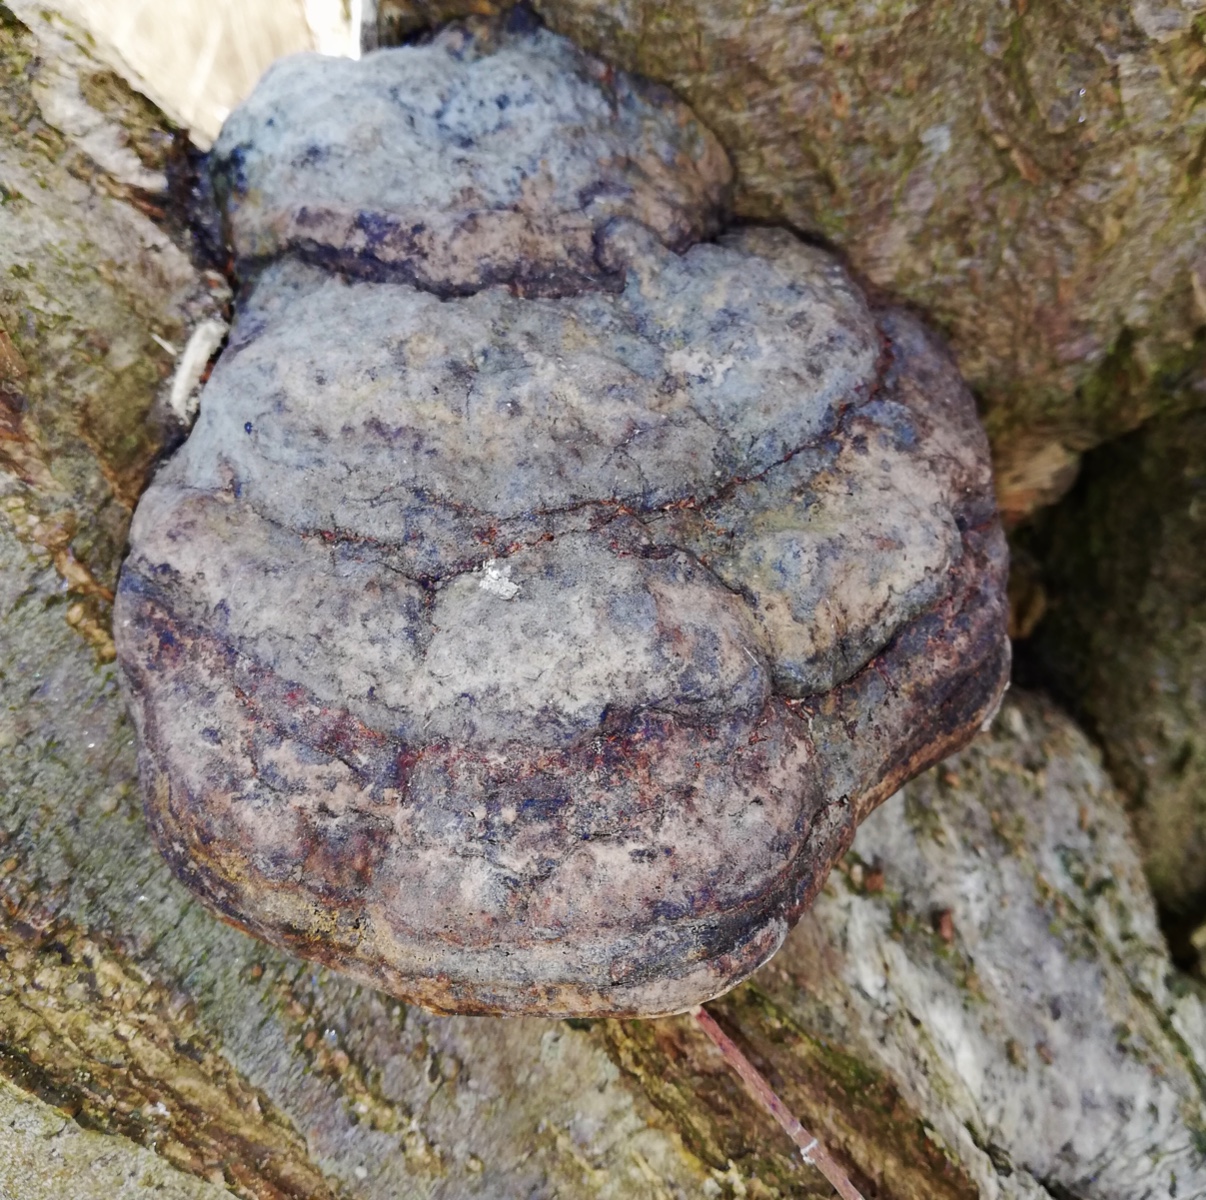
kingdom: Fungi
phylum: Basidiomycota
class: Agaricomycetes
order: Polyporales
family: Polyporaceae
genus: Fomes
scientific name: Fomes fomentarius
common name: tøndersvamp
